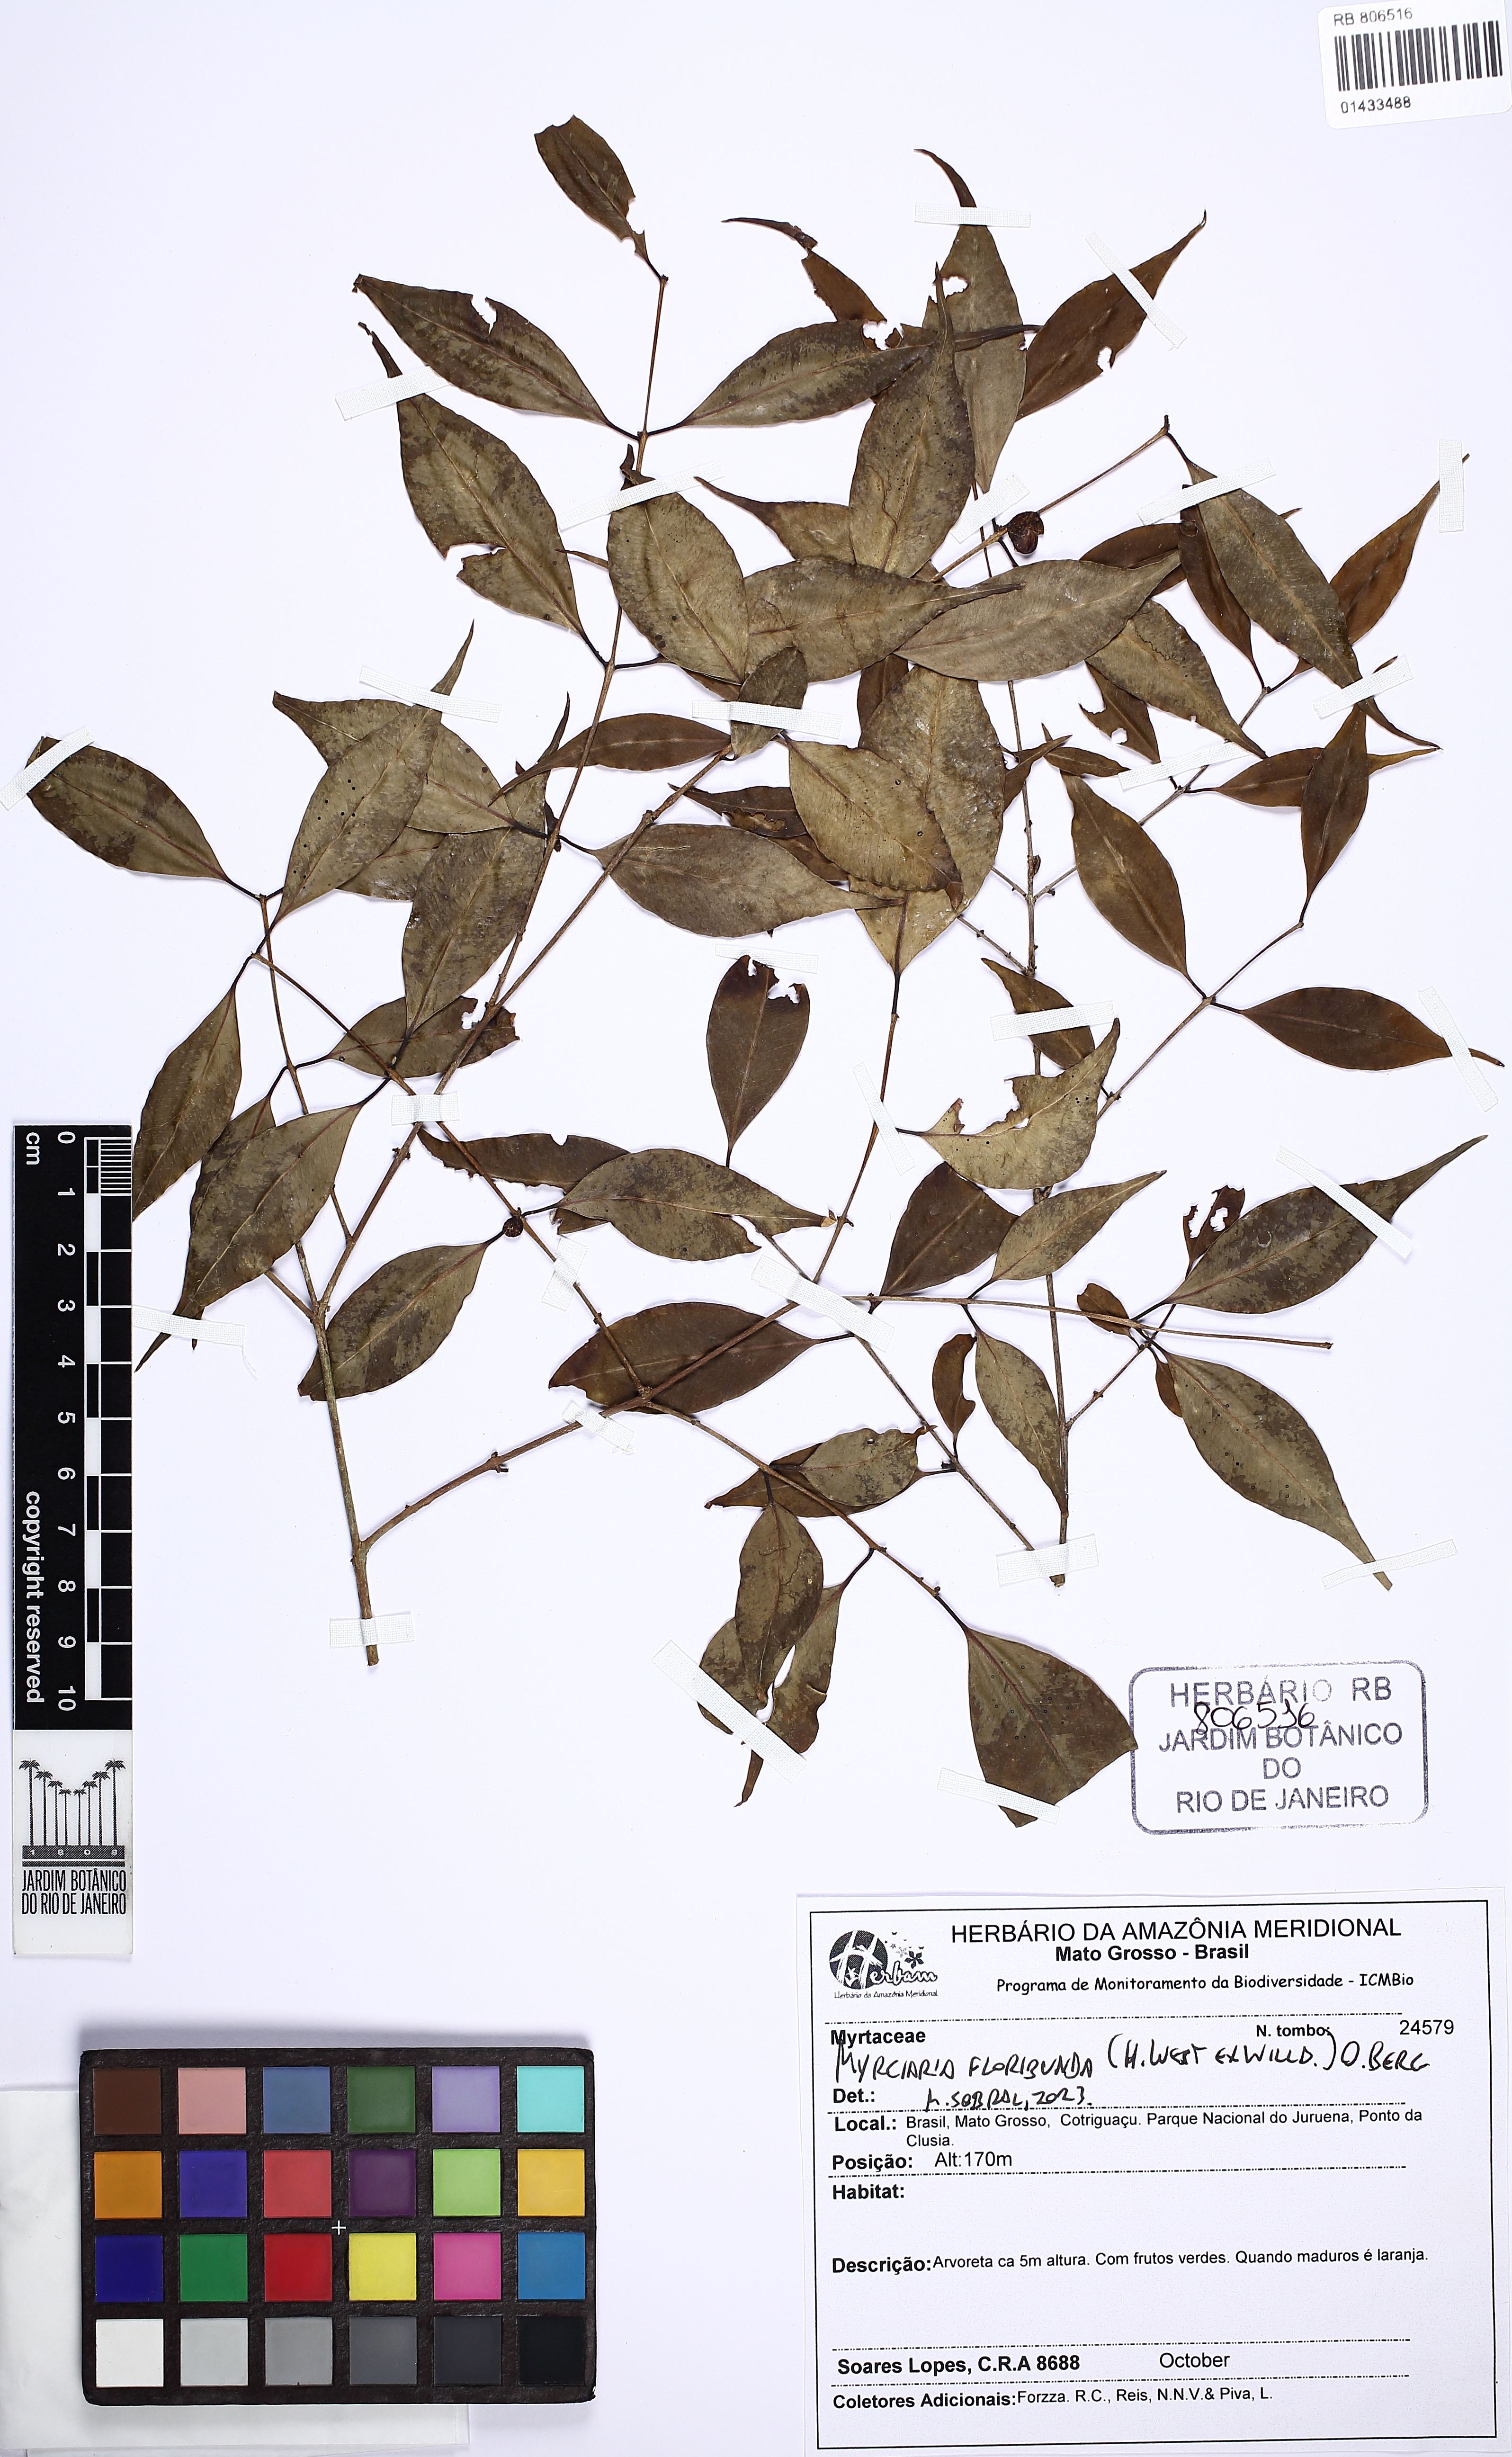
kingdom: Plantae
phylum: Tracheophyta
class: Magnoliopsida
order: Myrtales
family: Myrtaceae
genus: Myrciaria
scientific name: Myrciaria floribunda
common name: Guavaberry
